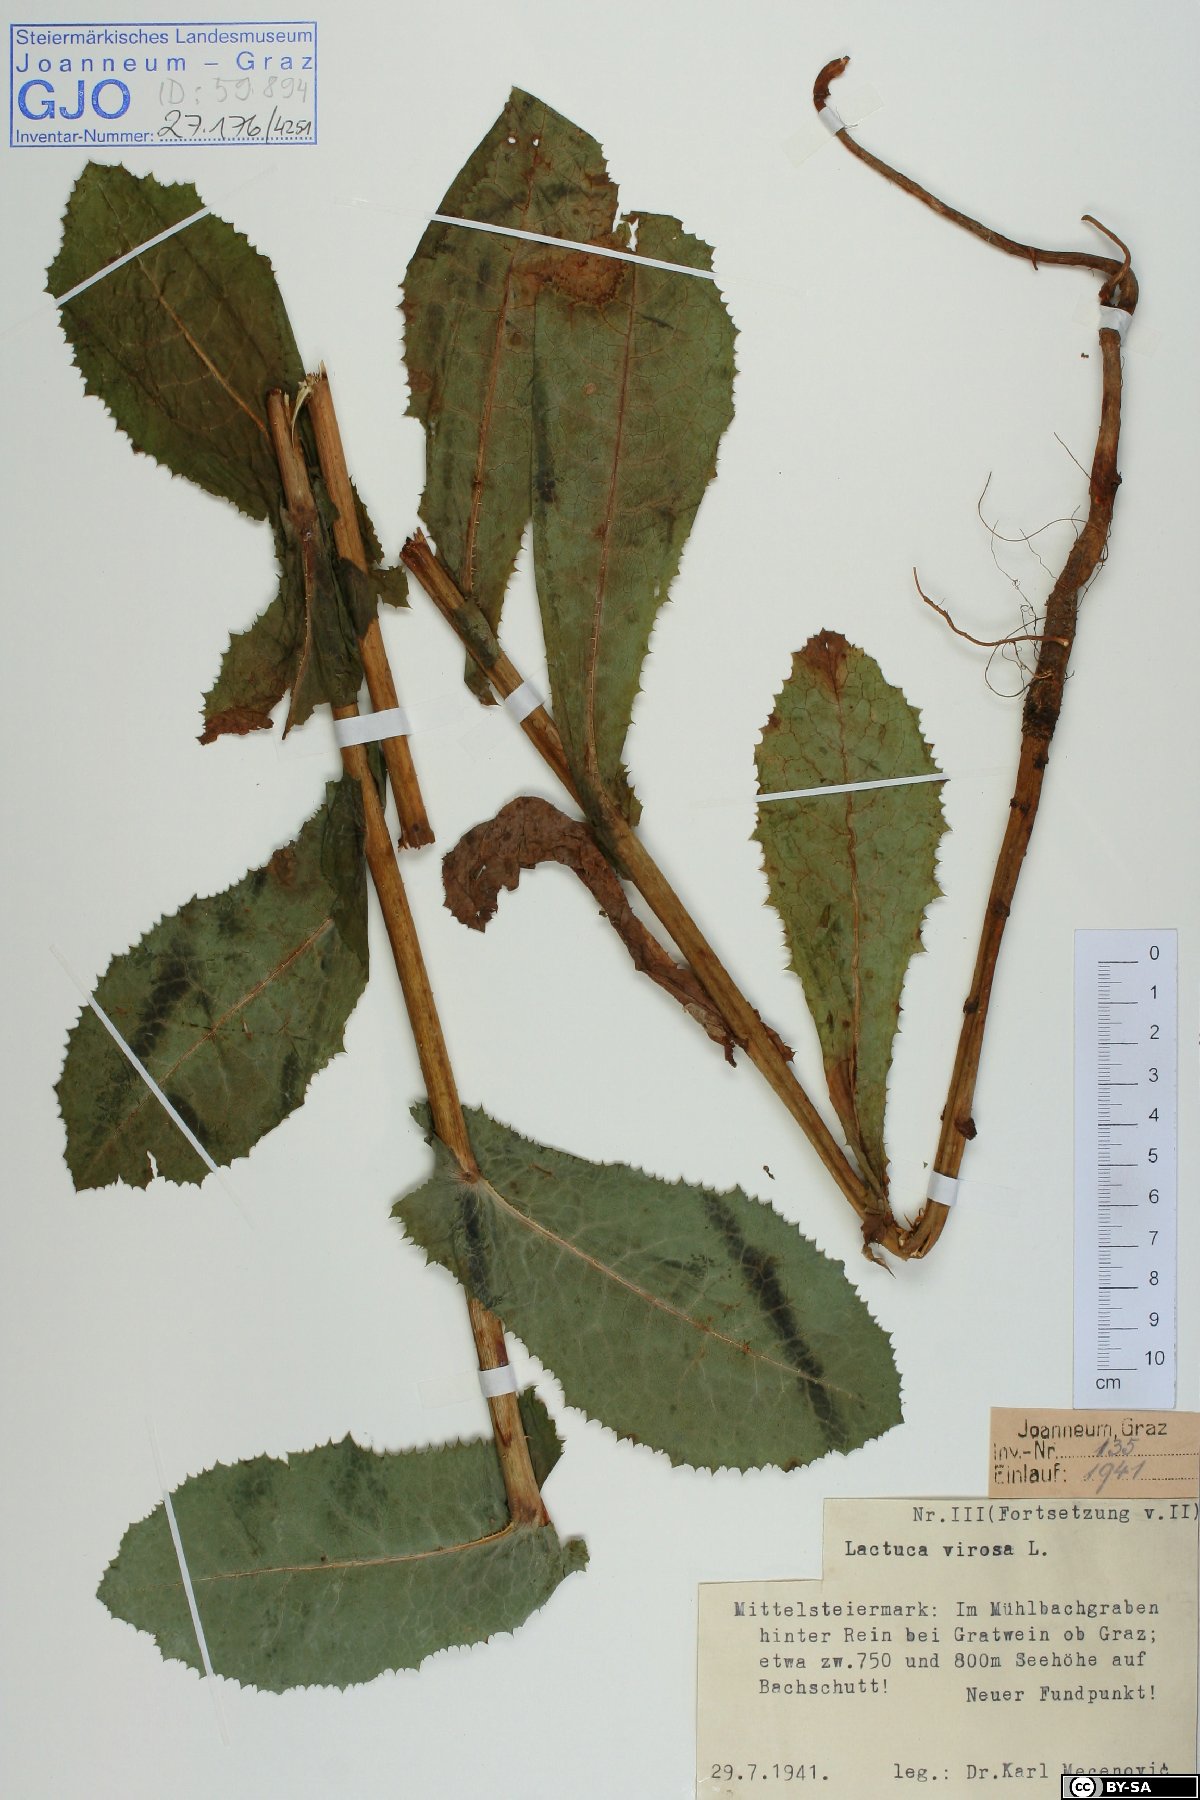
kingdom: Plantae
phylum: Tracheophyta
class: Magnoliopsida
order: Asterales
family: Asteraceae
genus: Lactuca
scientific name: Lactuca virosa
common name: Great lettuce
